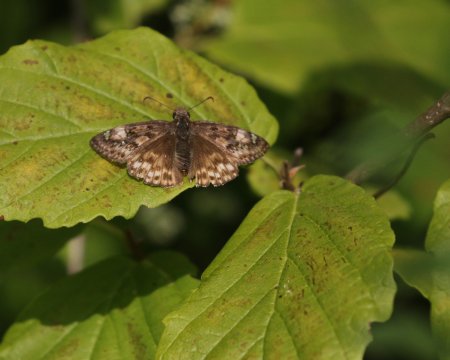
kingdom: Animalia
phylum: Arthropoda
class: Insecta
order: Lepidoptera
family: Hesperiidae
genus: Gesta
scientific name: Gesta
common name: Juvenal's Duskywing
